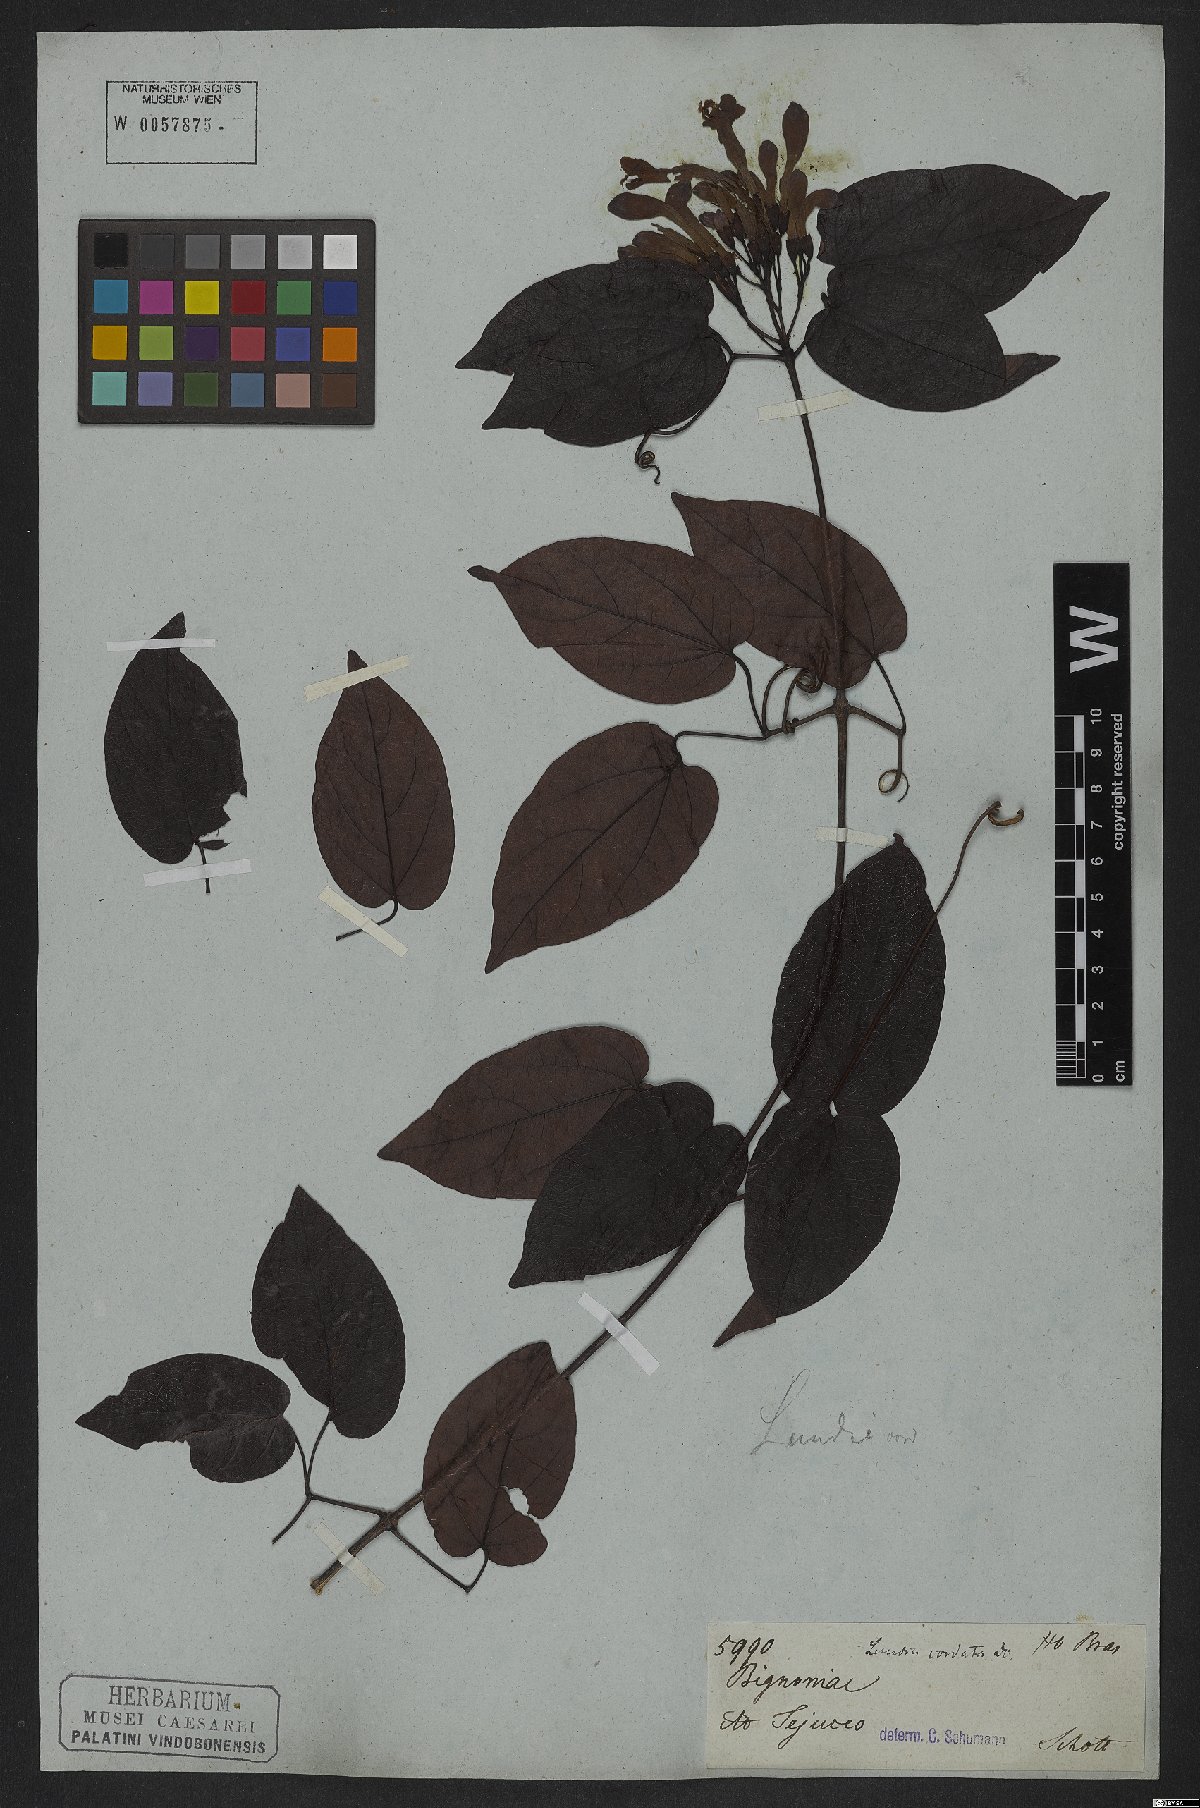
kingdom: Plantae
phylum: Tracheophyta
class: Magnoliopsida
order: Lamiales
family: Bignoniaceae
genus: Lundia
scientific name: Lundia corymbifera
